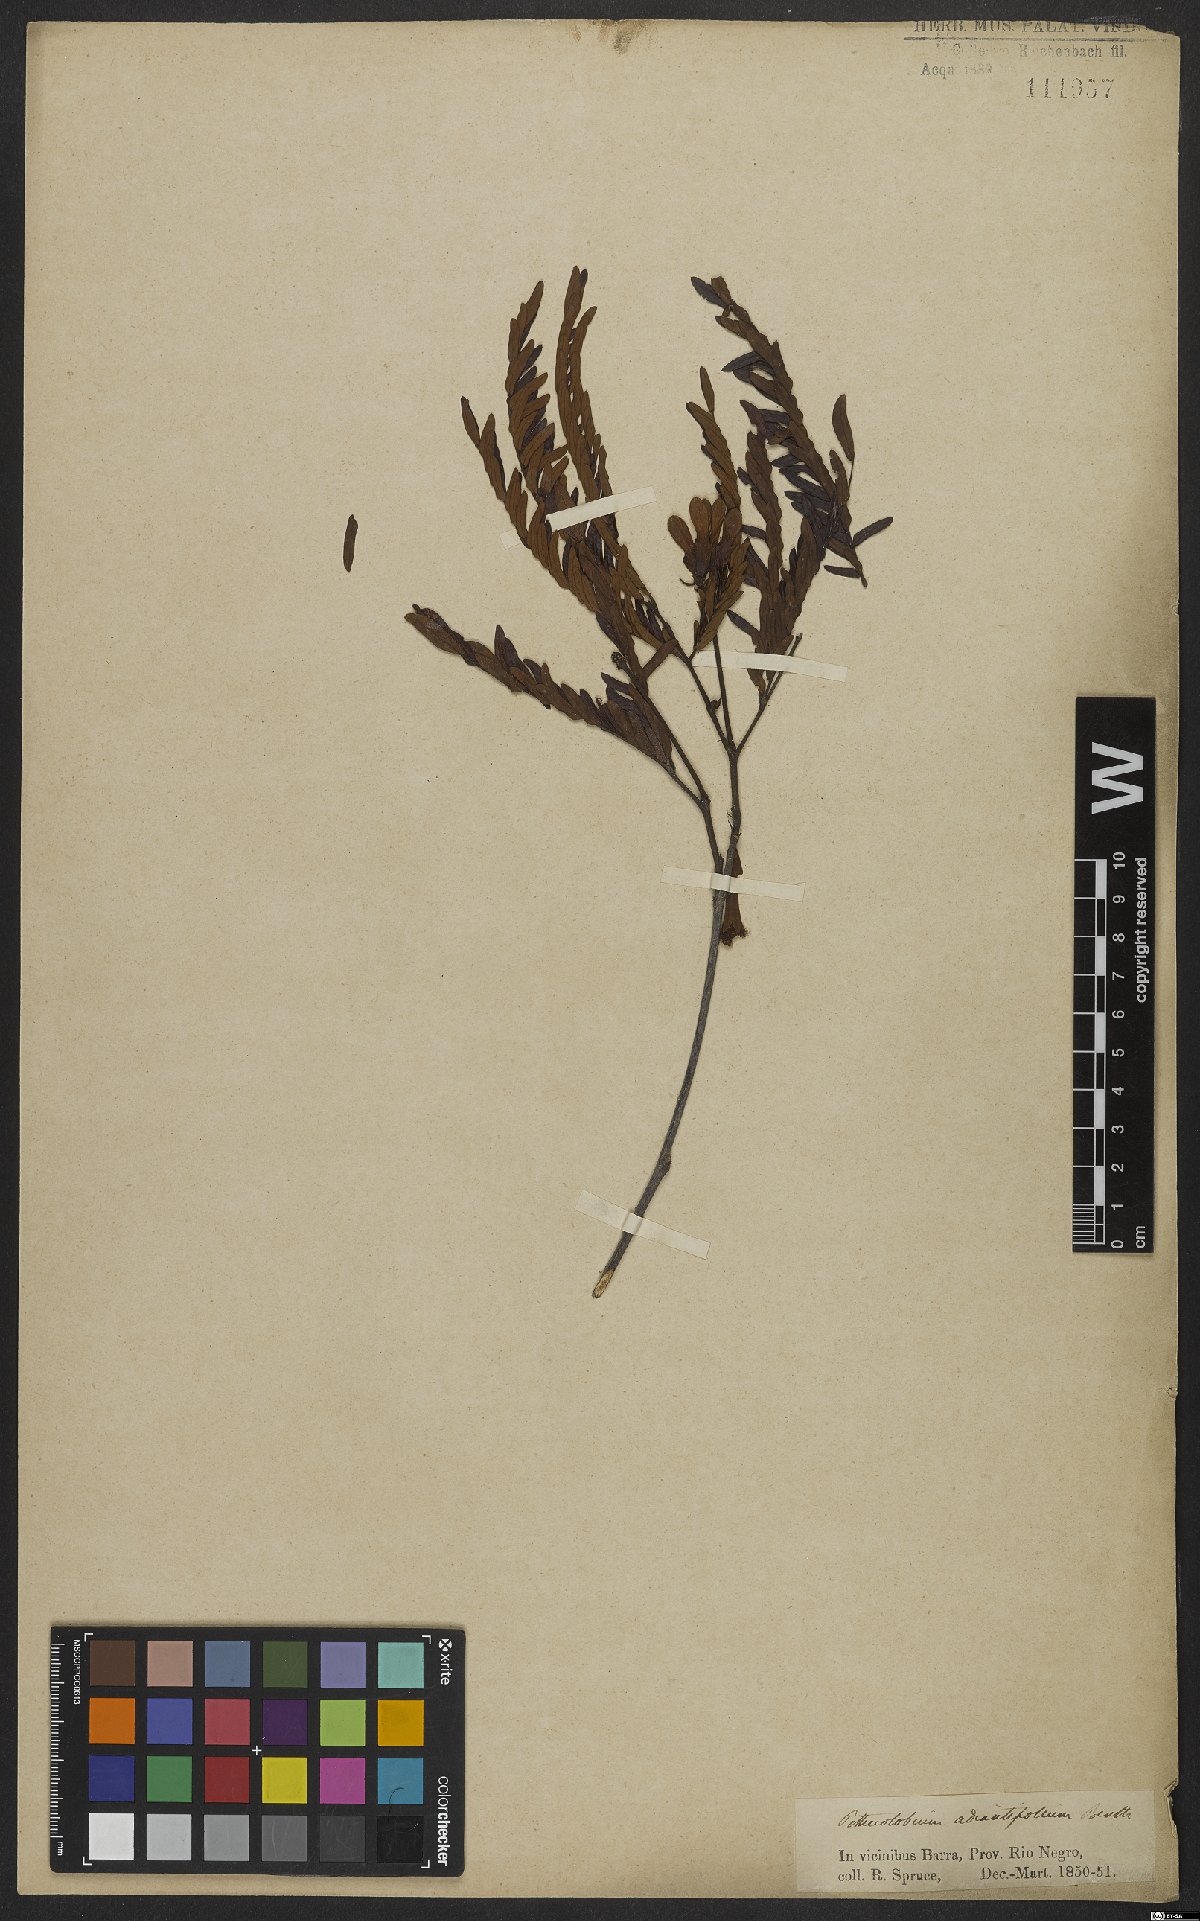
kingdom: Plantae
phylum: Tracheophyta
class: Magnoliopsida
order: Fabales
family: Fabaceae
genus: Macrosamanea
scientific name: Macrosamanea discolor
